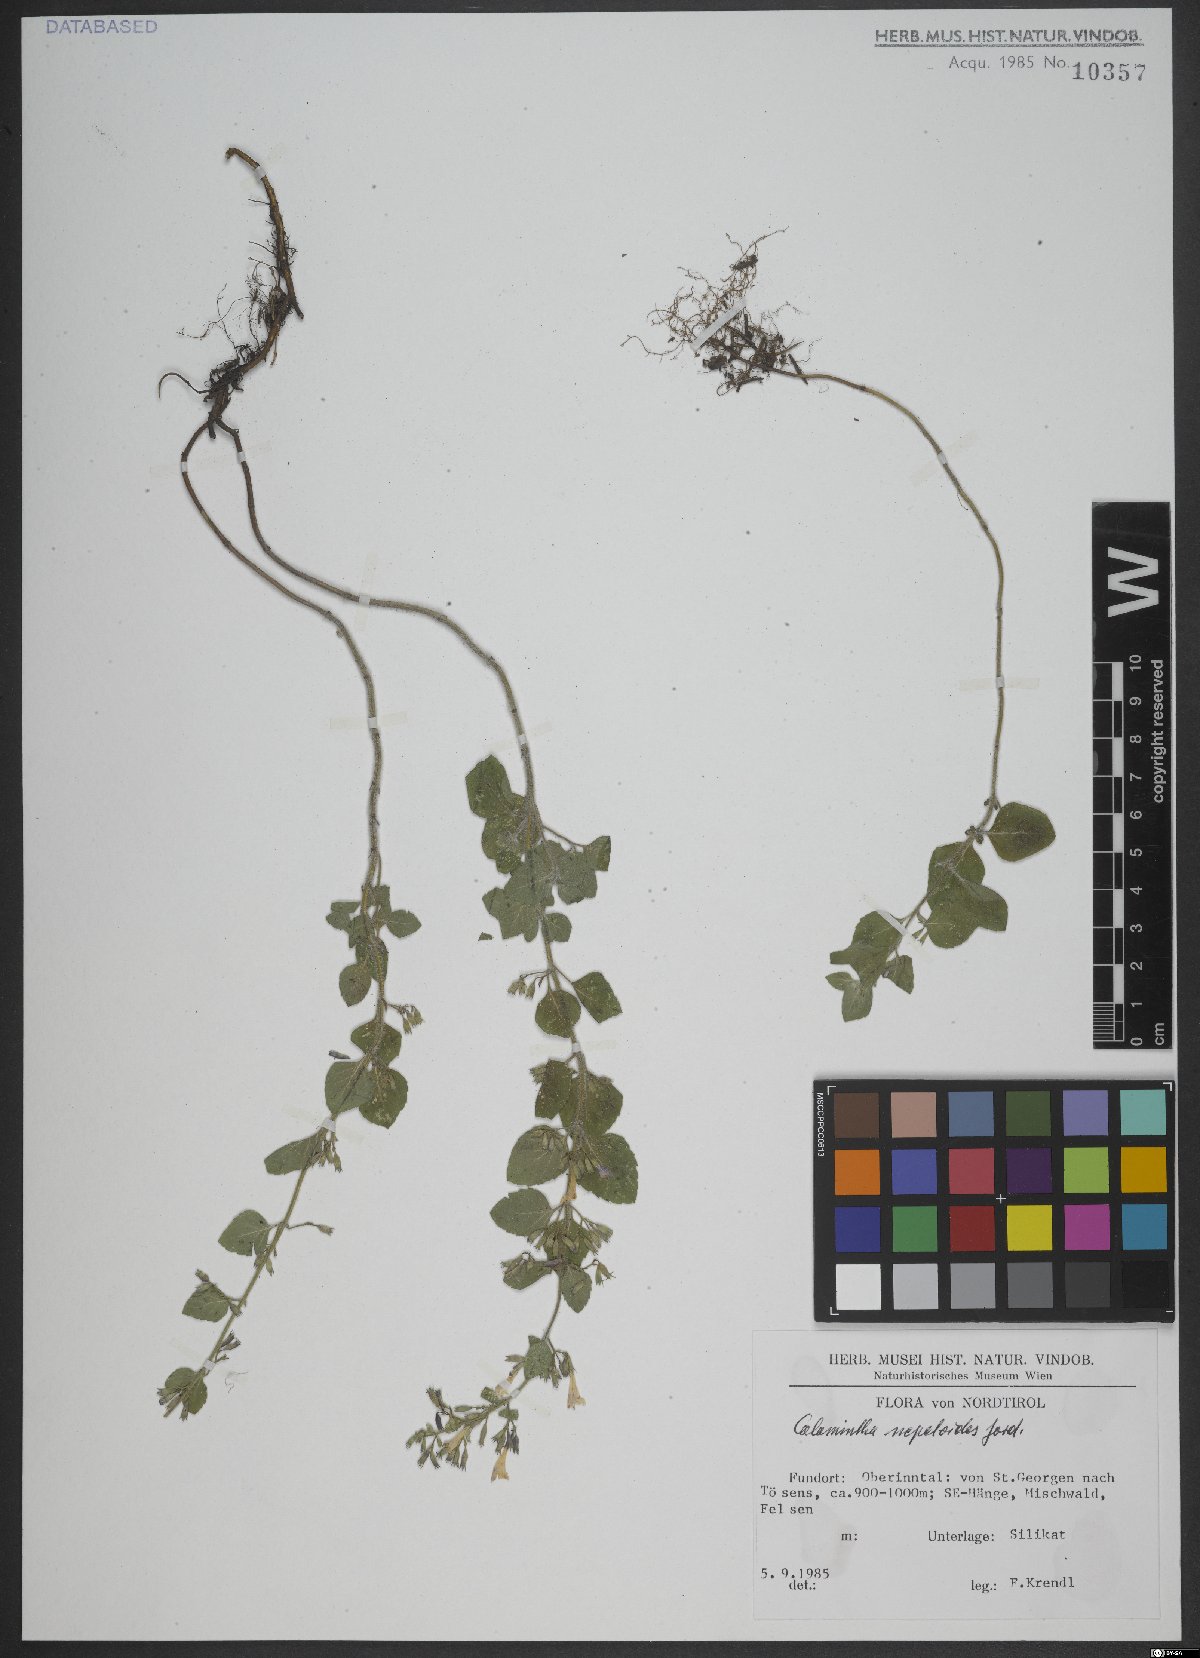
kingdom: Plantae
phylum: Tracheophyta
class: Magnoliopsida
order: Lamiales
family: Lamiaceae
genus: Clinopodium
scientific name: Clinopodium nepeta
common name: Lesser calamint
